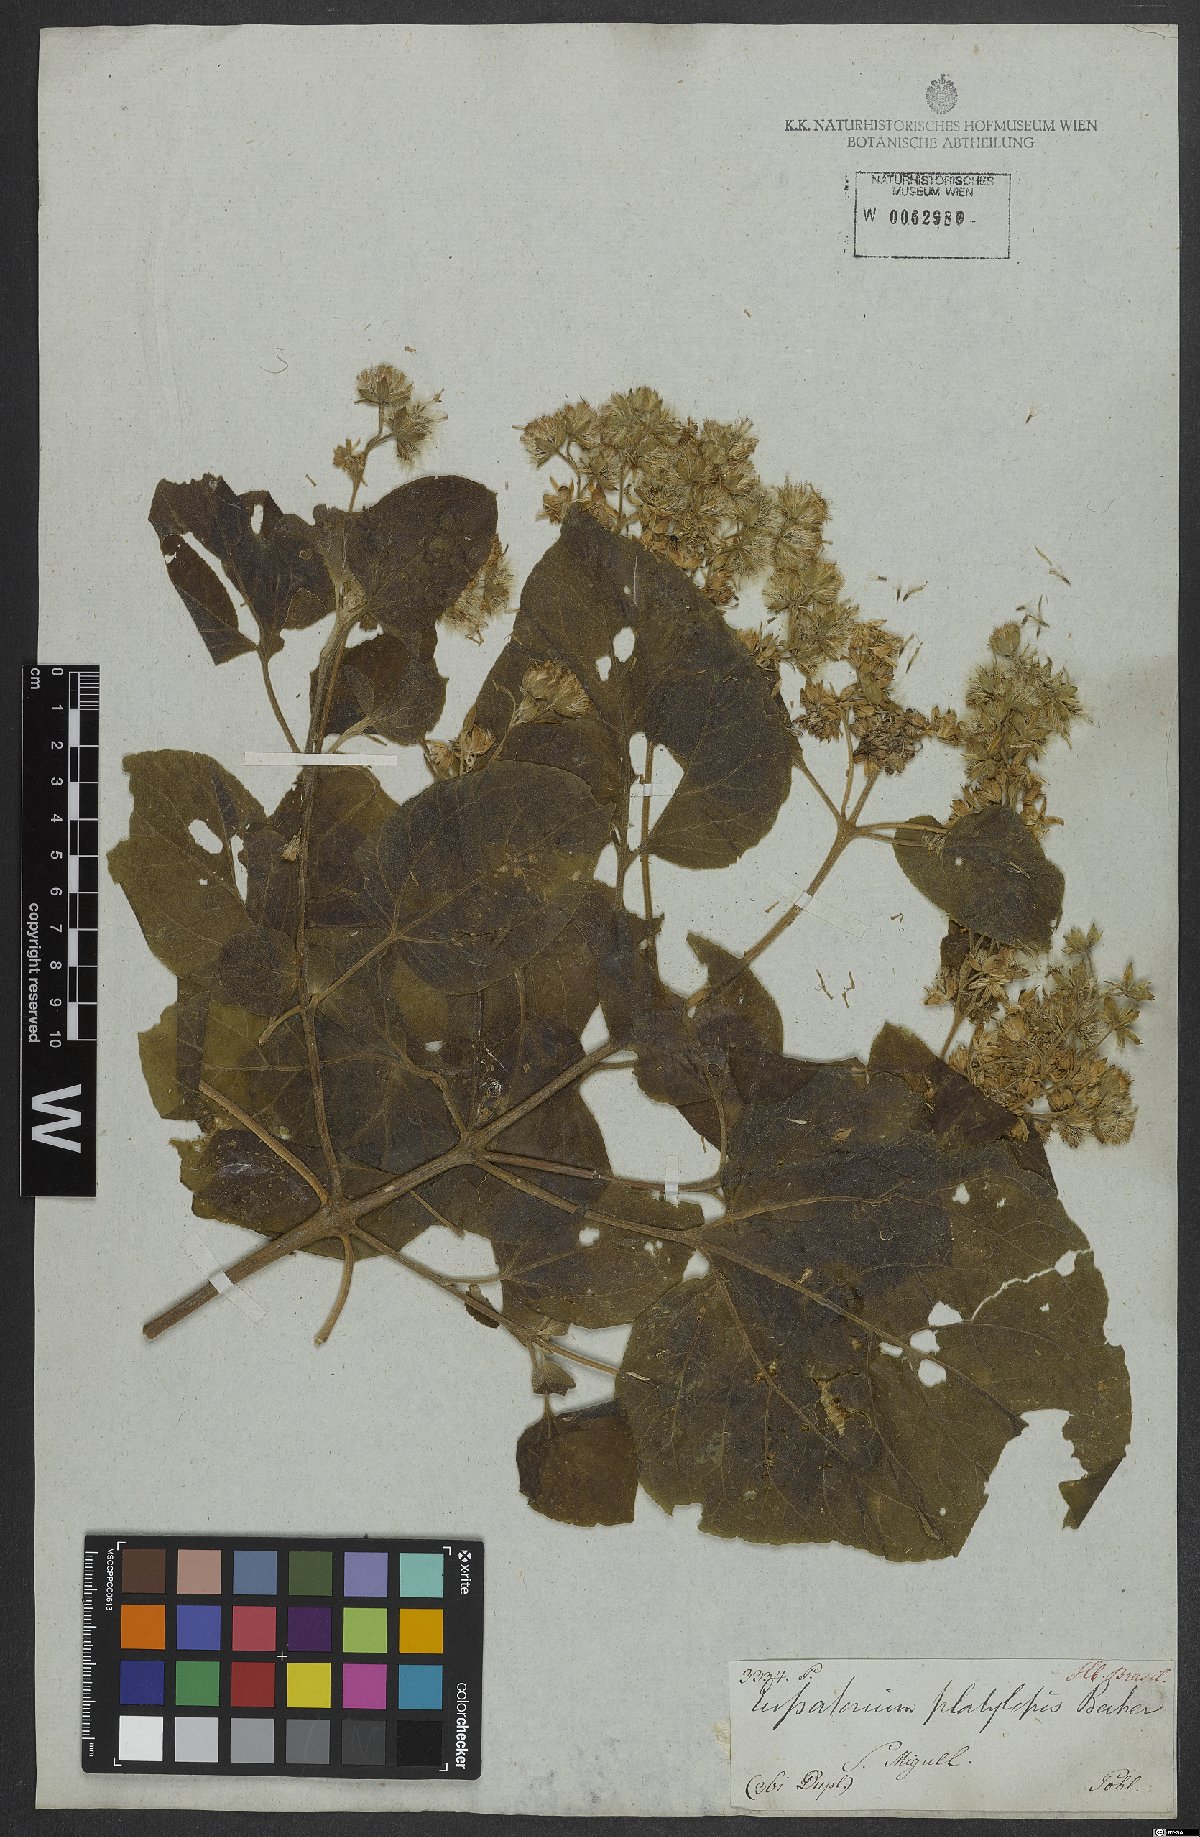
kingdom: Plantae
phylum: Tracheophyta
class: Magnoliopsida
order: Asterales
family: Asteraceae
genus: Dasycondylus
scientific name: Dasycondylus platylepis
